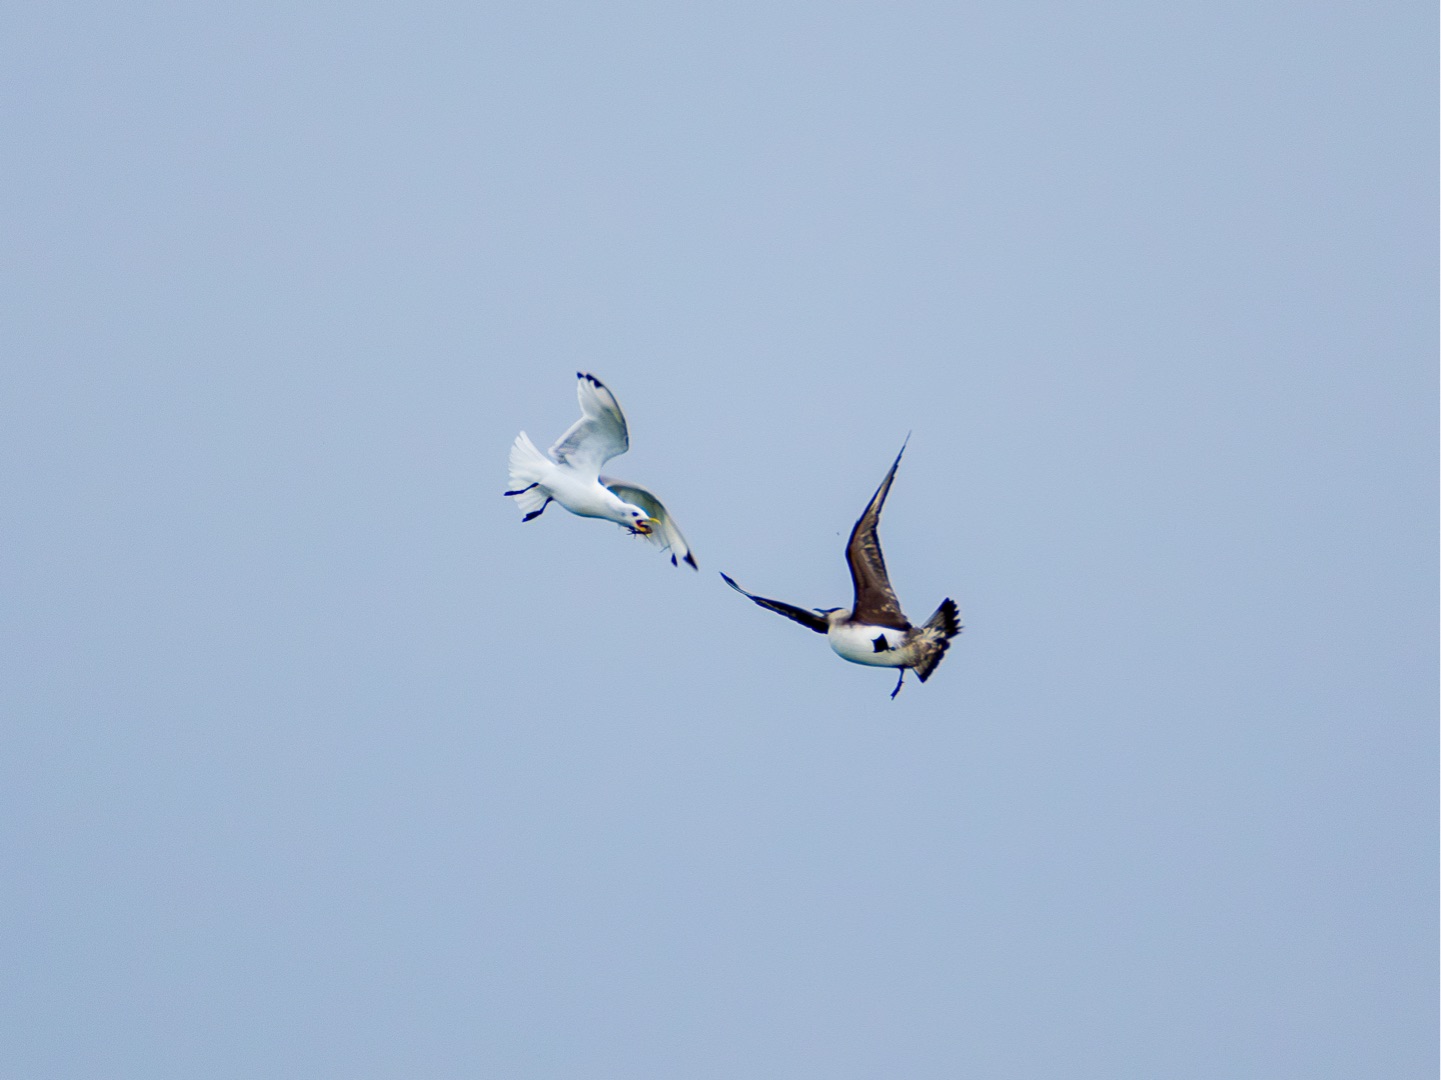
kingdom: Animalia
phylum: Chordata
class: Aves
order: Charadriiformes
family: Stercorariidae
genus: Stercorarius
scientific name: Stercorarius parasiticus
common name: Almindelig kjove
